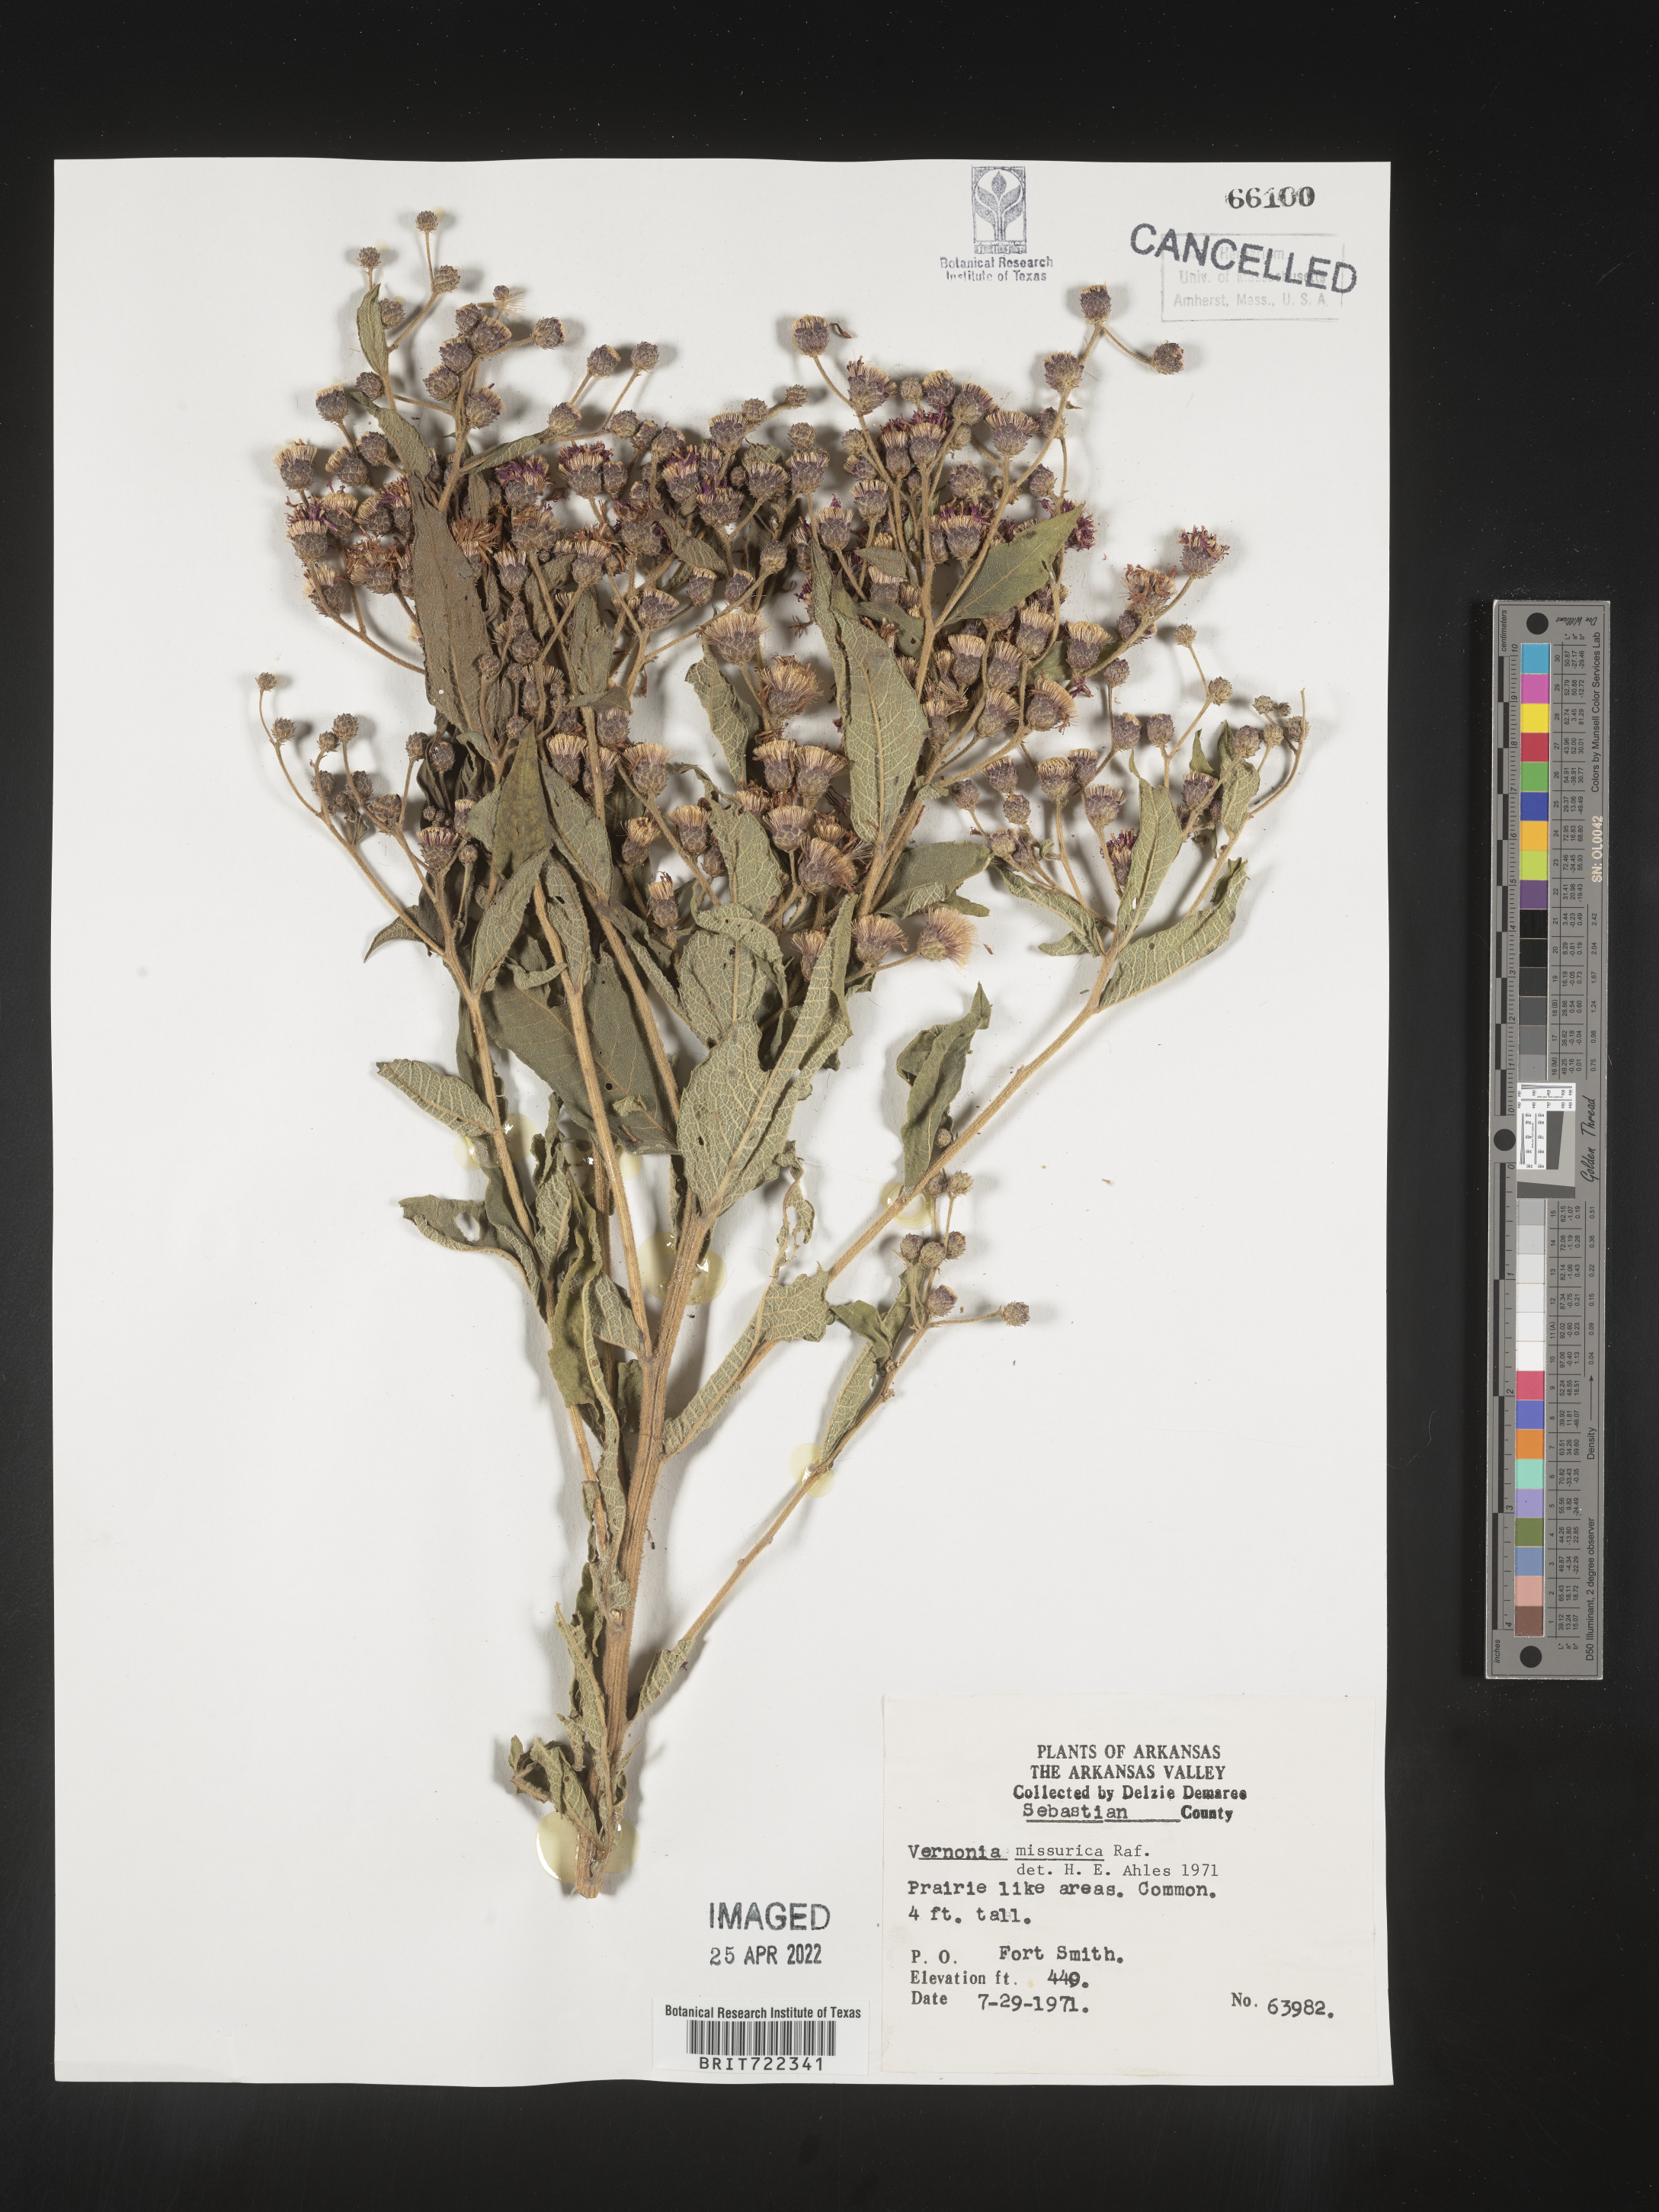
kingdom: Plantae
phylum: Tracheophyta
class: Magnoliopsida
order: Asterales
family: Asteraceae
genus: Helianthus
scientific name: Helianthus hirsutus
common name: Hairy sunflower
